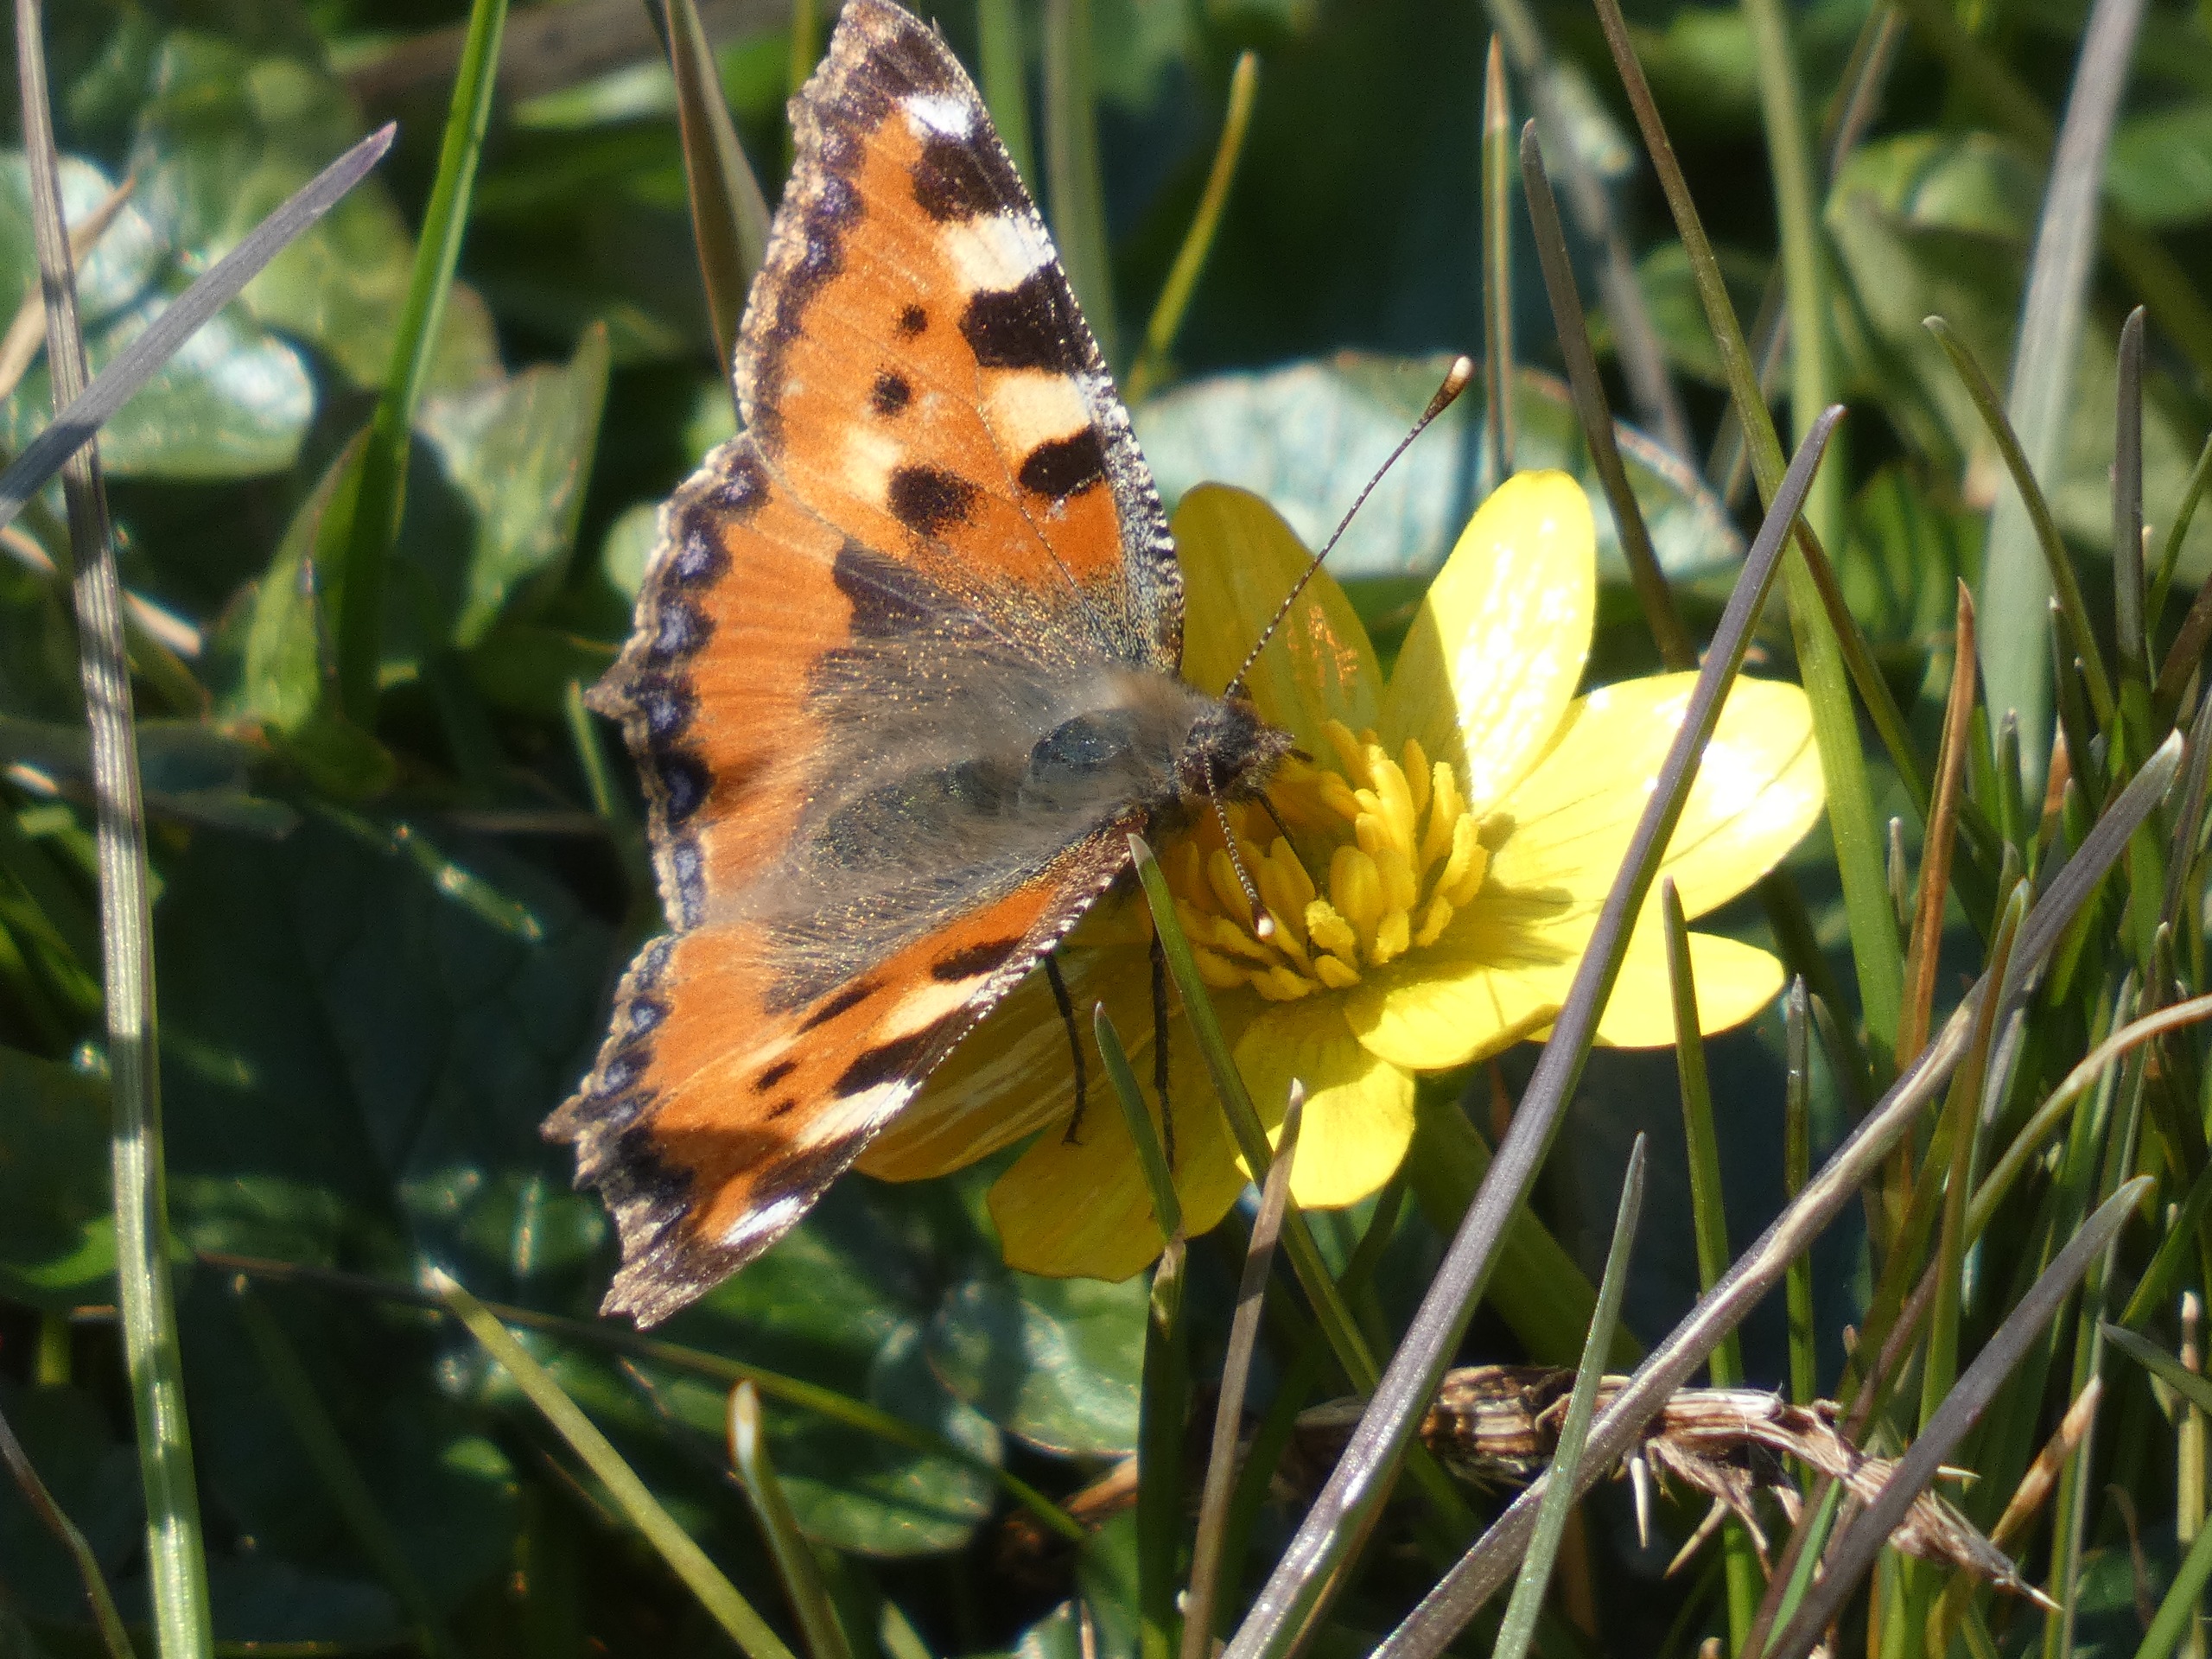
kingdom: Animalia
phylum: Arthropoda
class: Insecta
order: Lepidoptera
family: Nymphalidae
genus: Aglais
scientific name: Aglais urticae
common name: Nældens takvinge
